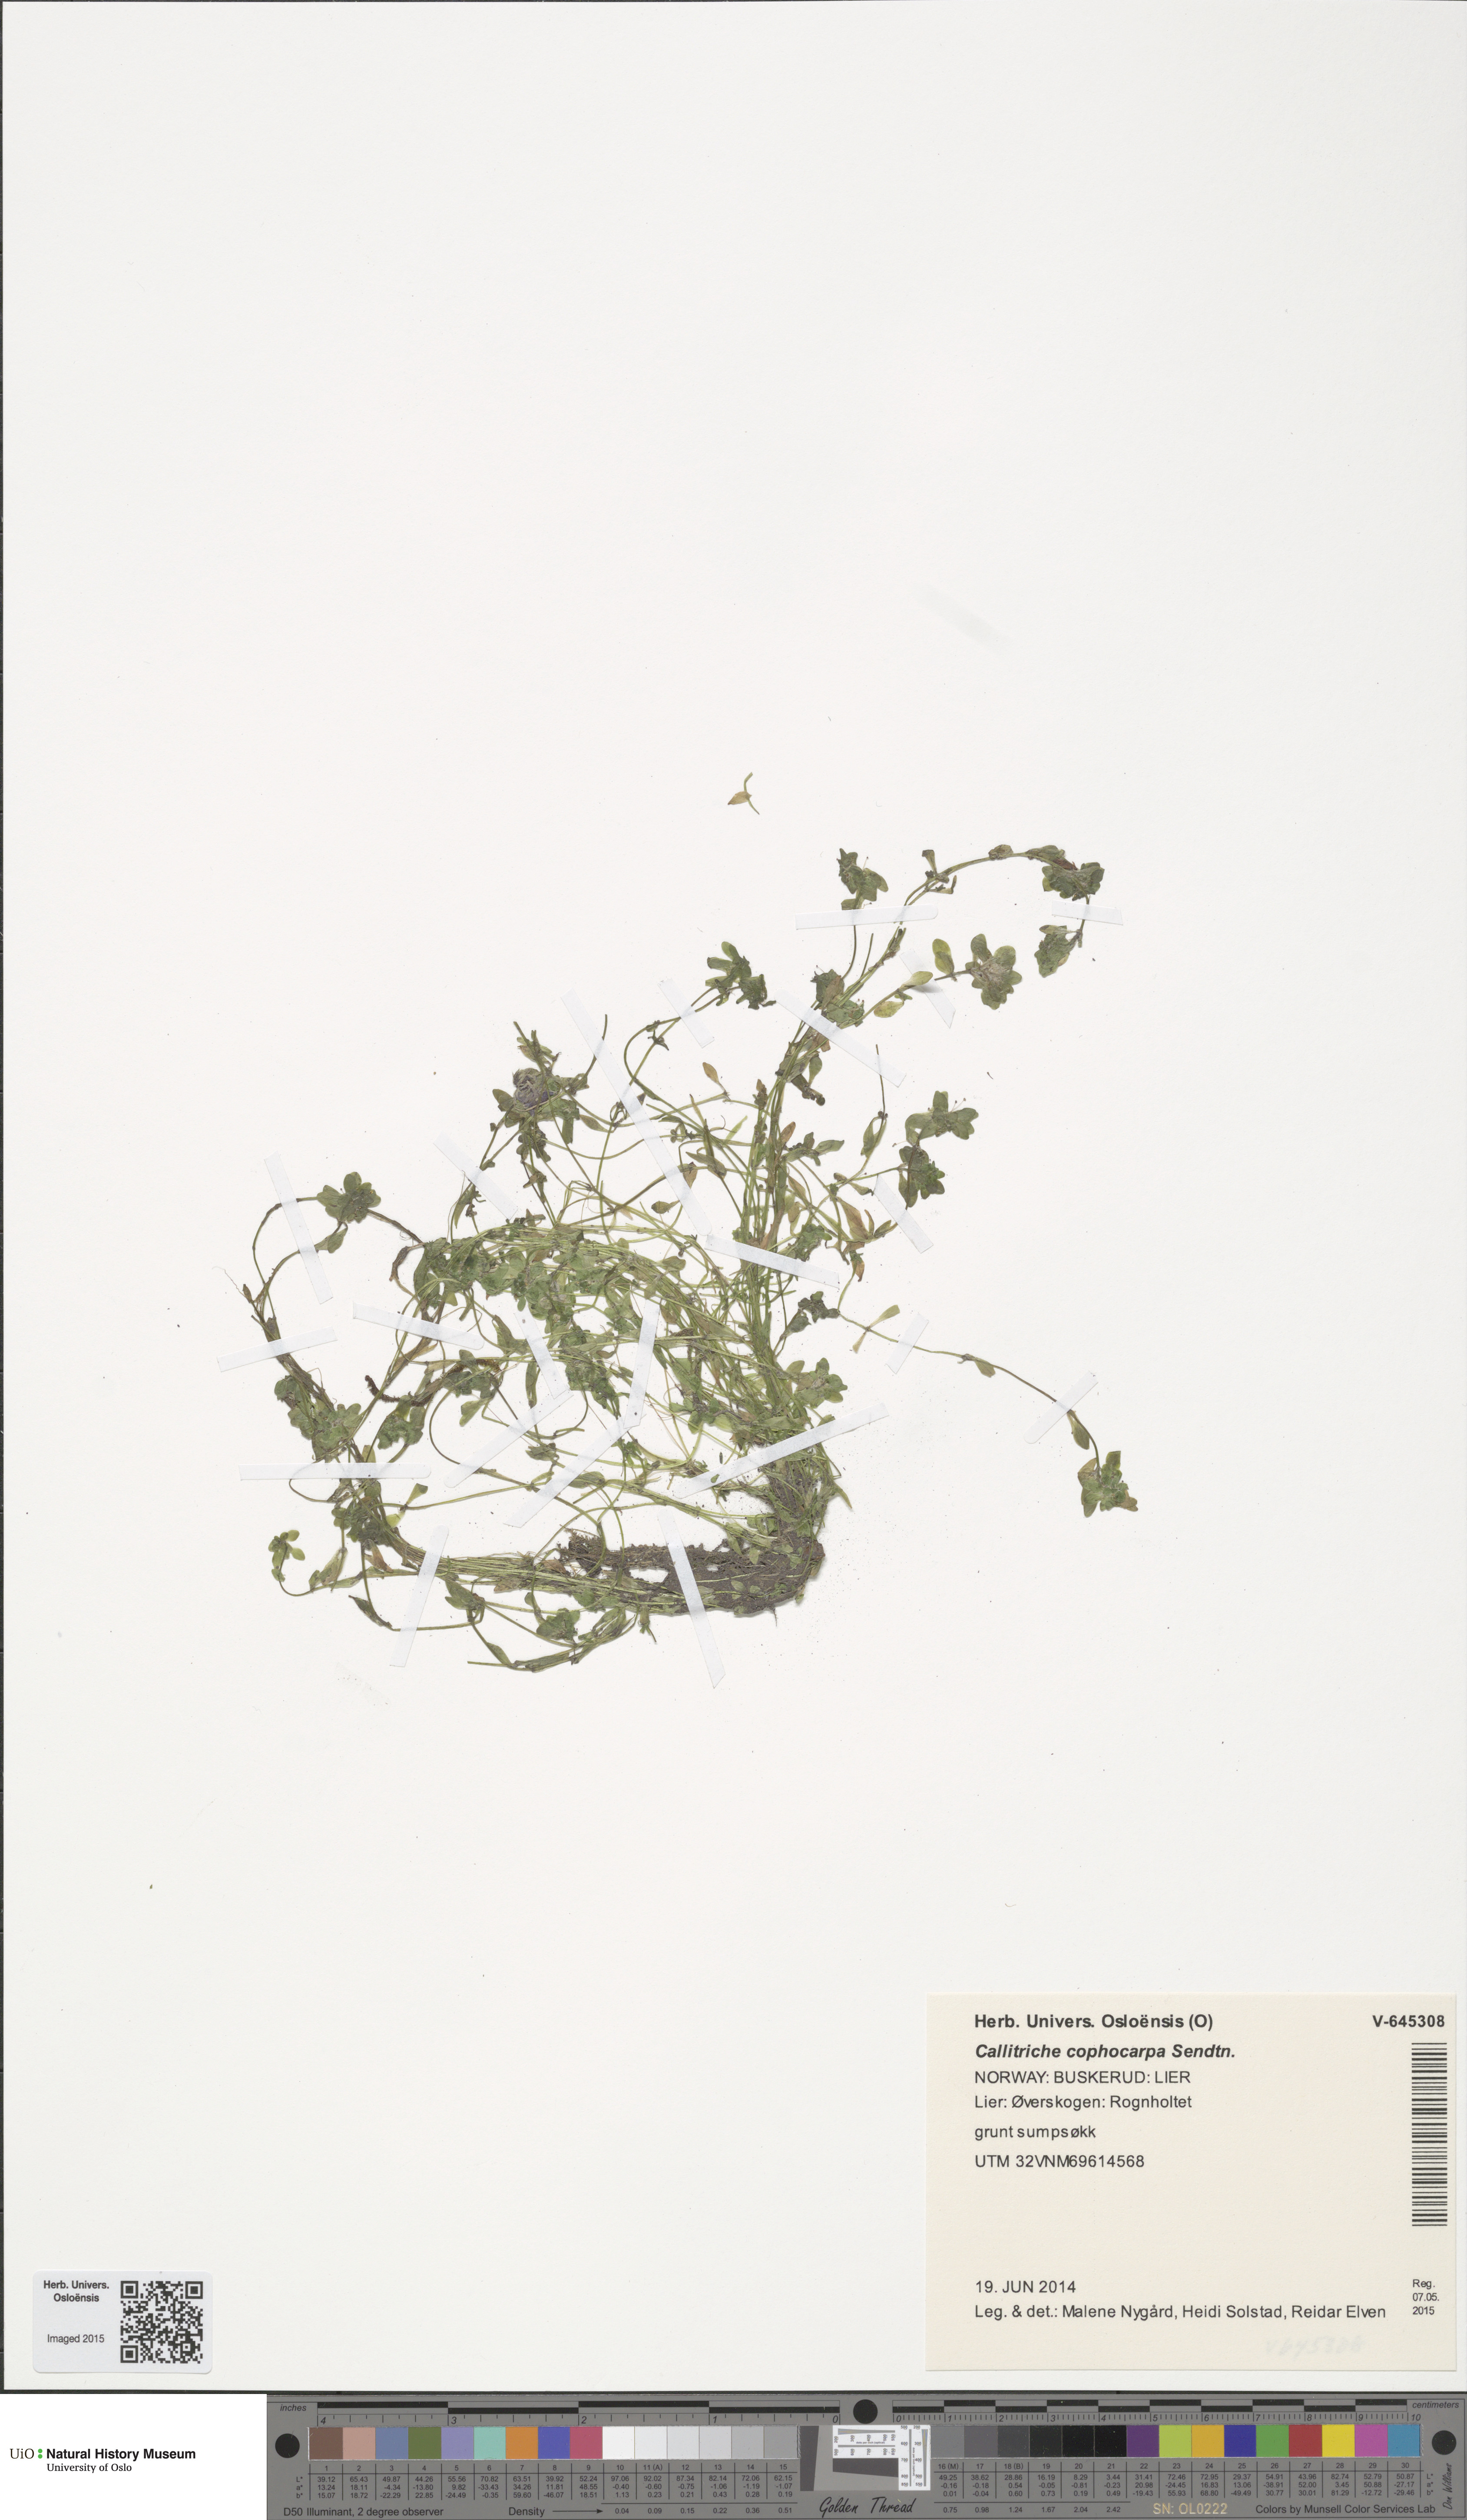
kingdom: Plantae
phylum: Tracheophyta
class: Magnoliopsida
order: Lamiales
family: Plantaginaceae
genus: Callitriche
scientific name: Callitriche cophocarpa
